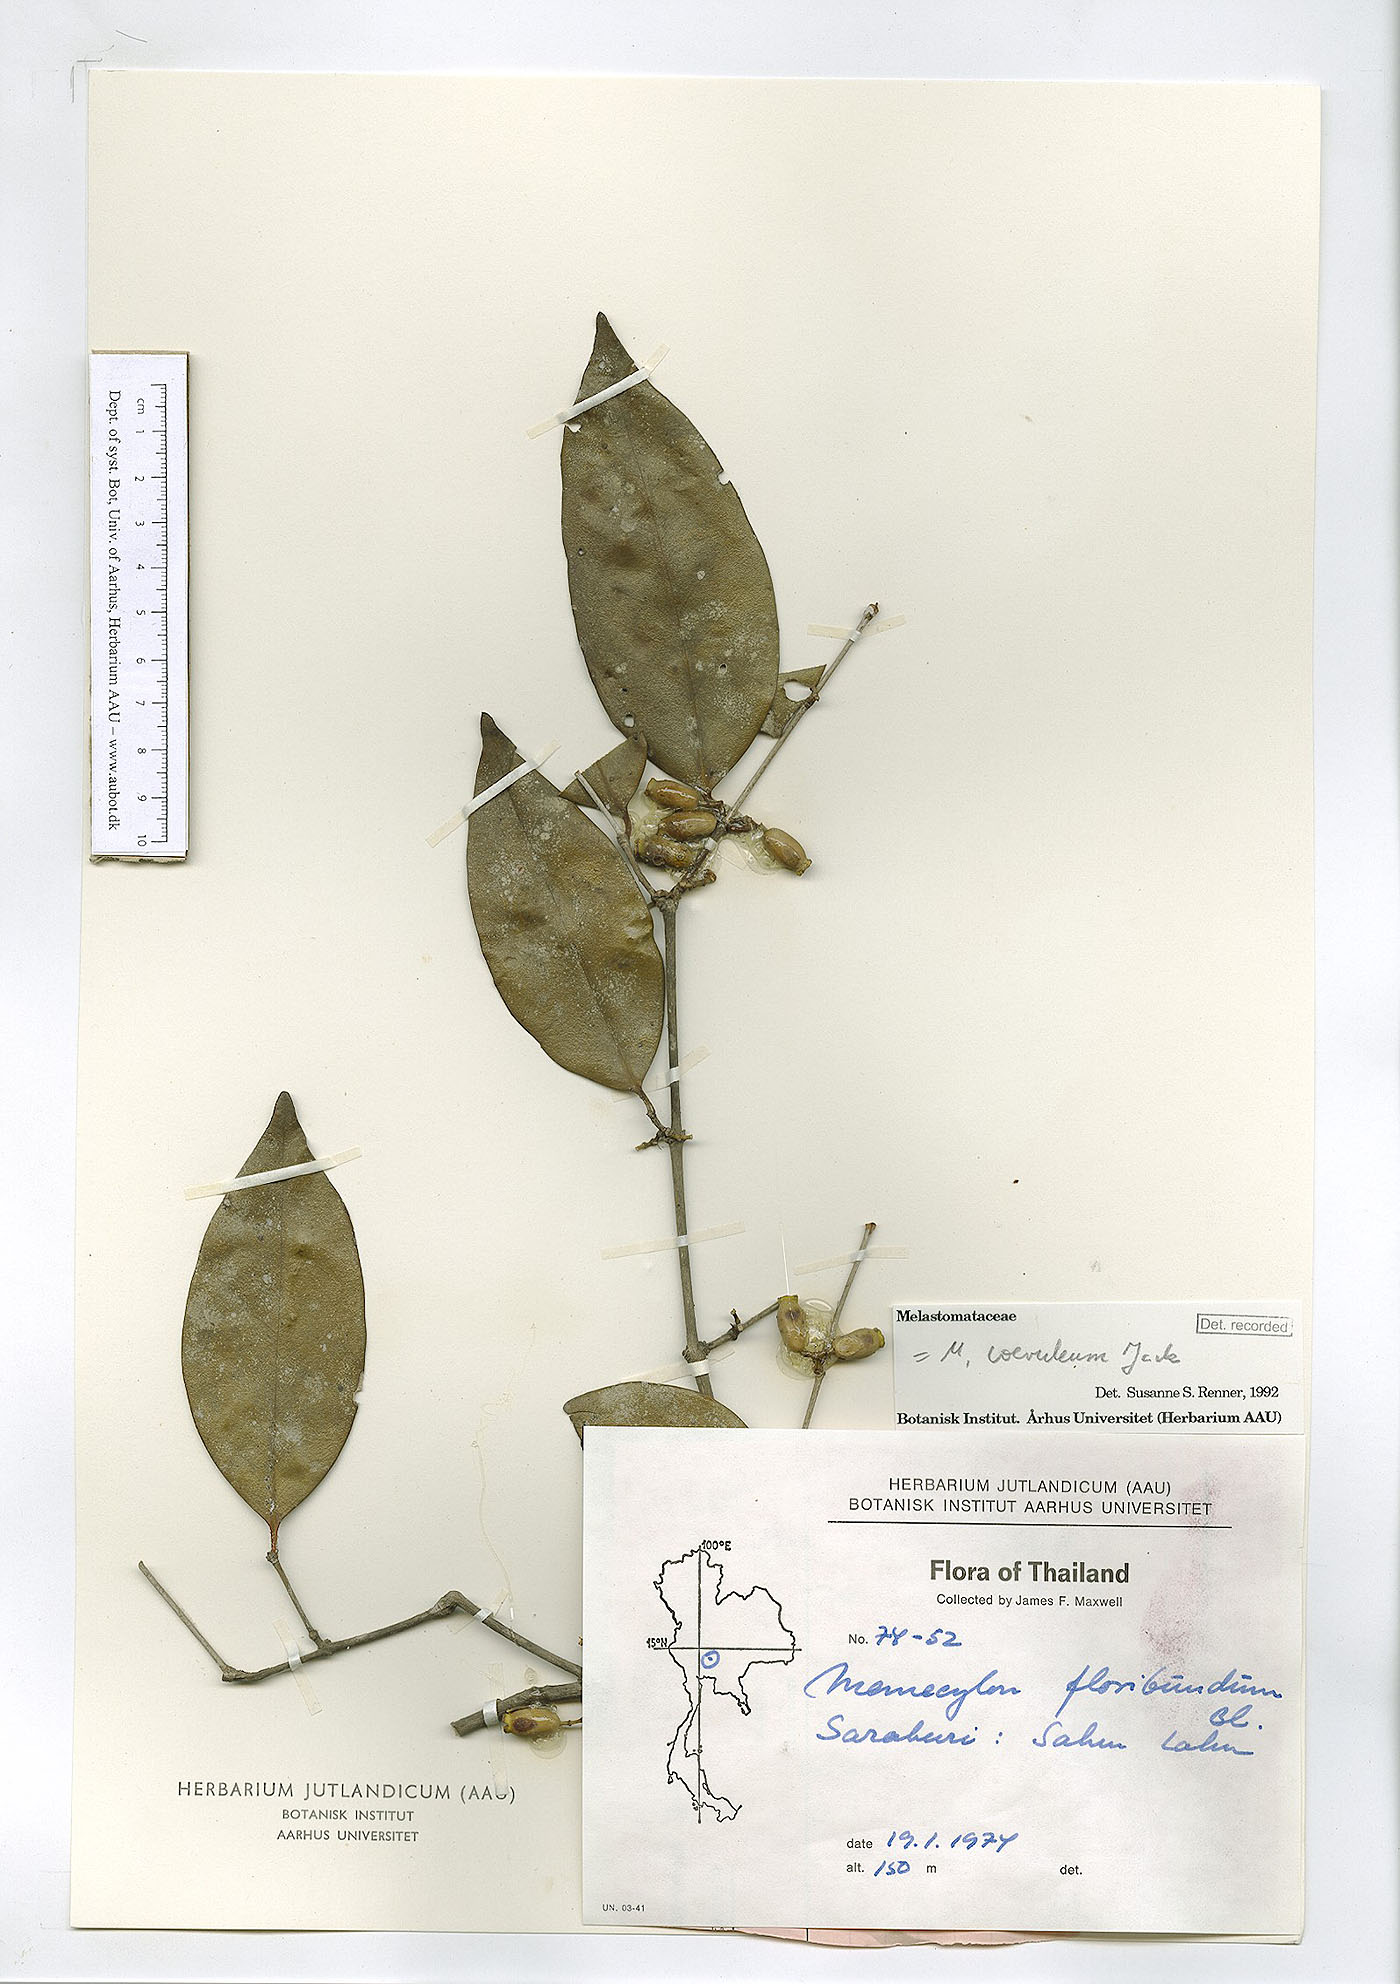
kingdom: Plantae
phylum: Tracheophyta
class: Magnoliopsida
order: Myrtales
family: Melastomataceae
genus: Memecylon
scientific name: Memecylon caeruleum
